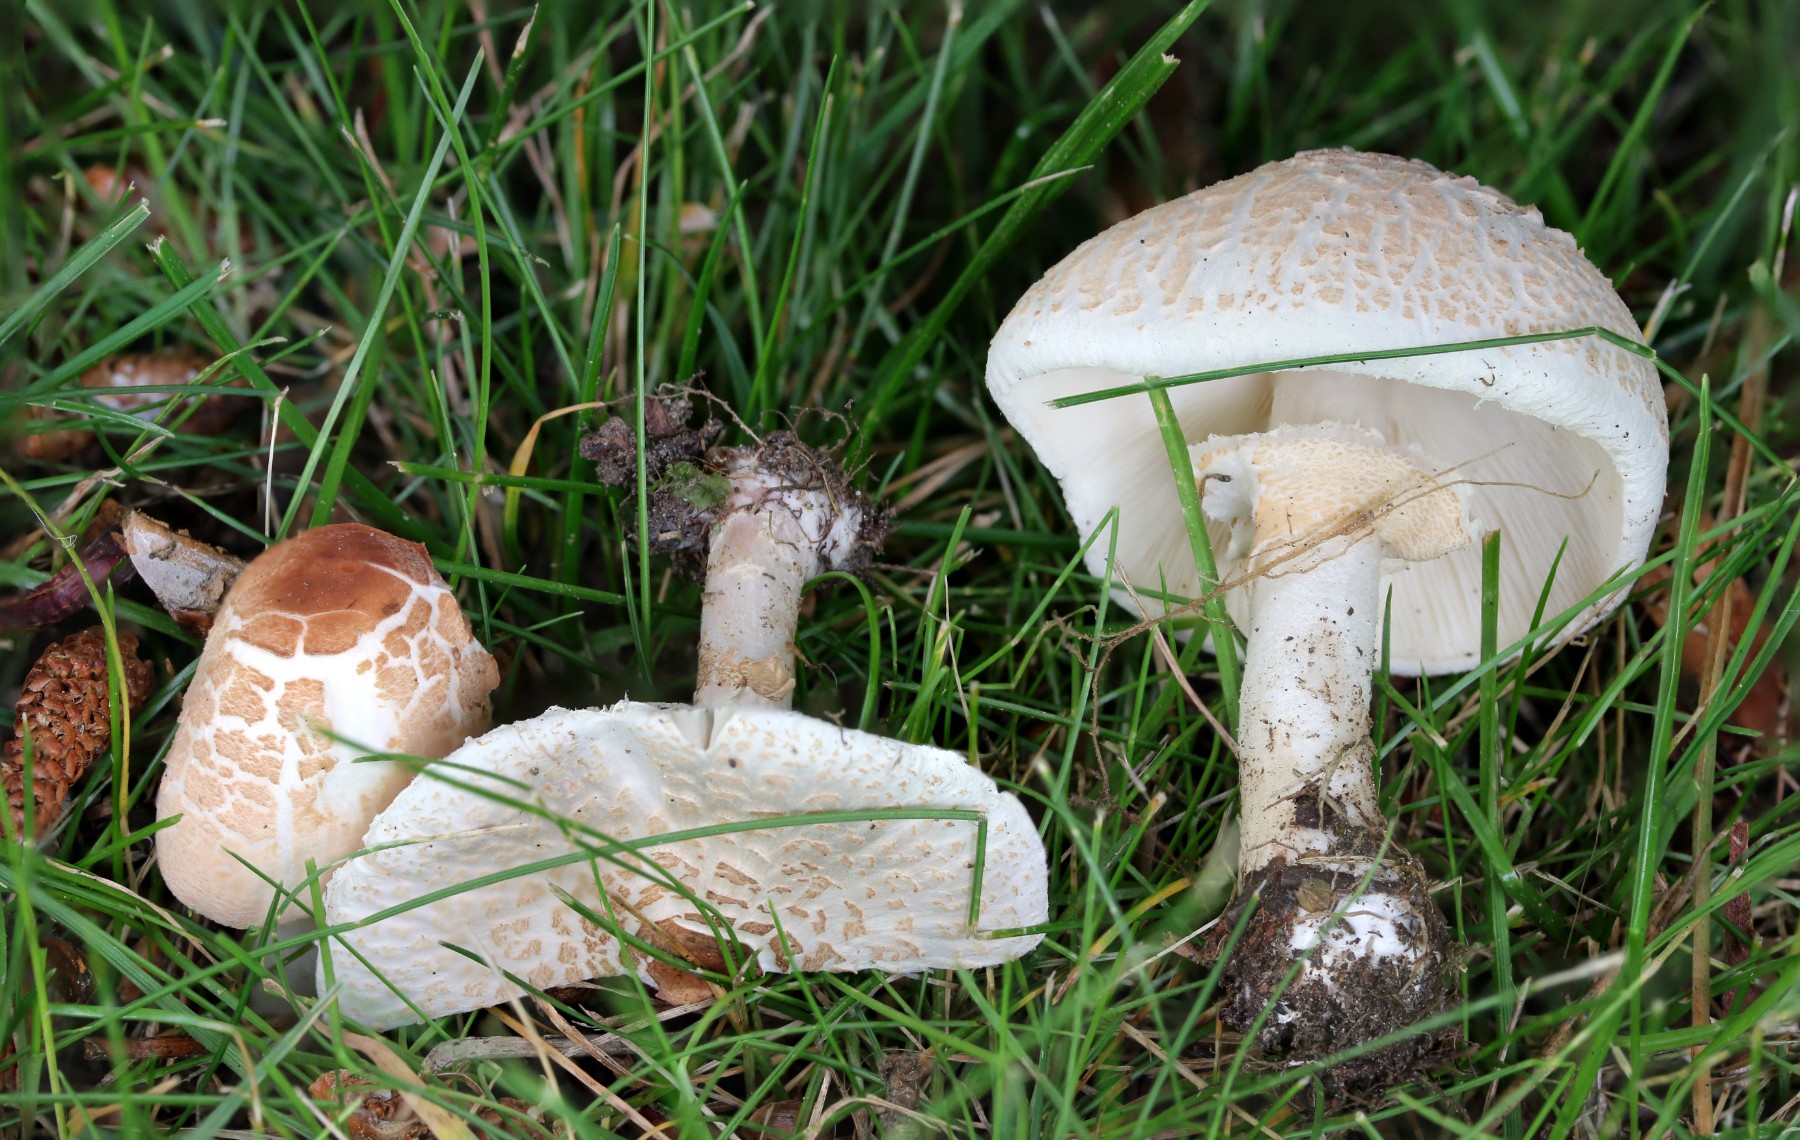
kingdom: Fungi
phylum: Basidiomycota
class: Agaricomycetes
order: Agaricales
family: Agaricaceae
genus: Lepiota
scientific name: Lepiota cristata
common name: stinkende parasolhat
